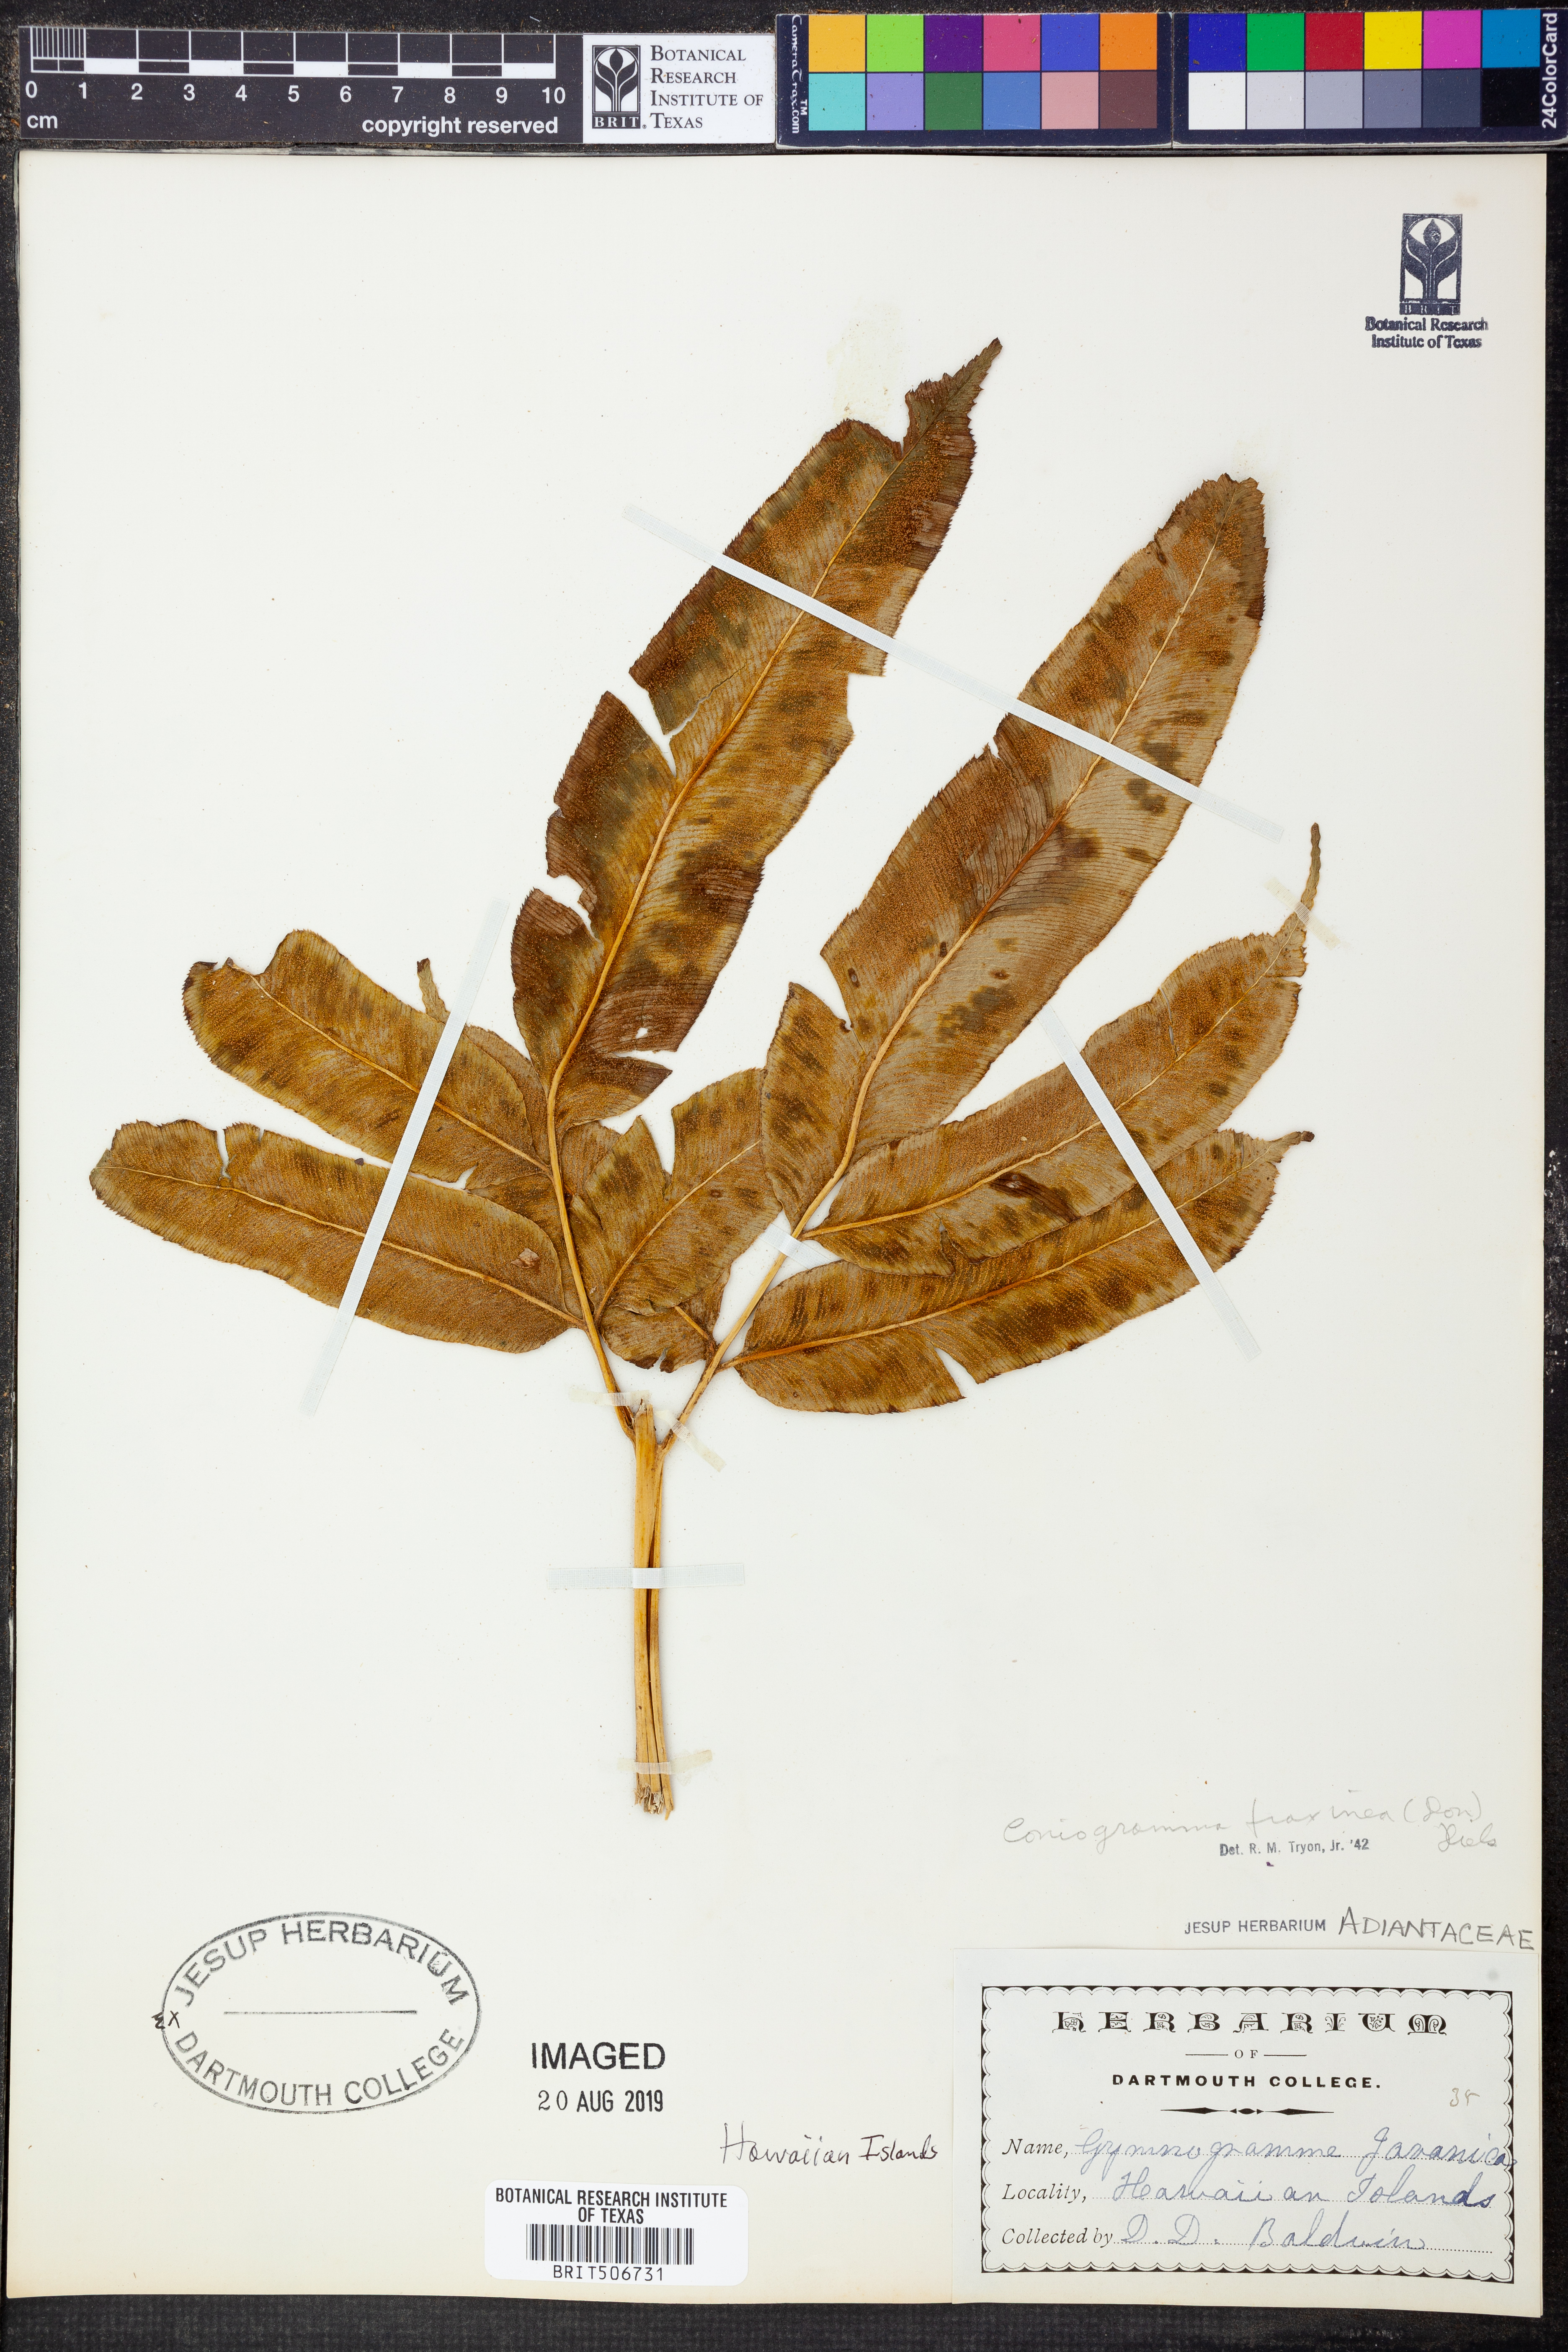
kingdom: Plantae
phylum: Tracheophyta
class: Polypodiopsida
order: Polypodiales
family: Pteridaceae
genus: Coniogramme
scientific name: Coniogramme fraxinea
